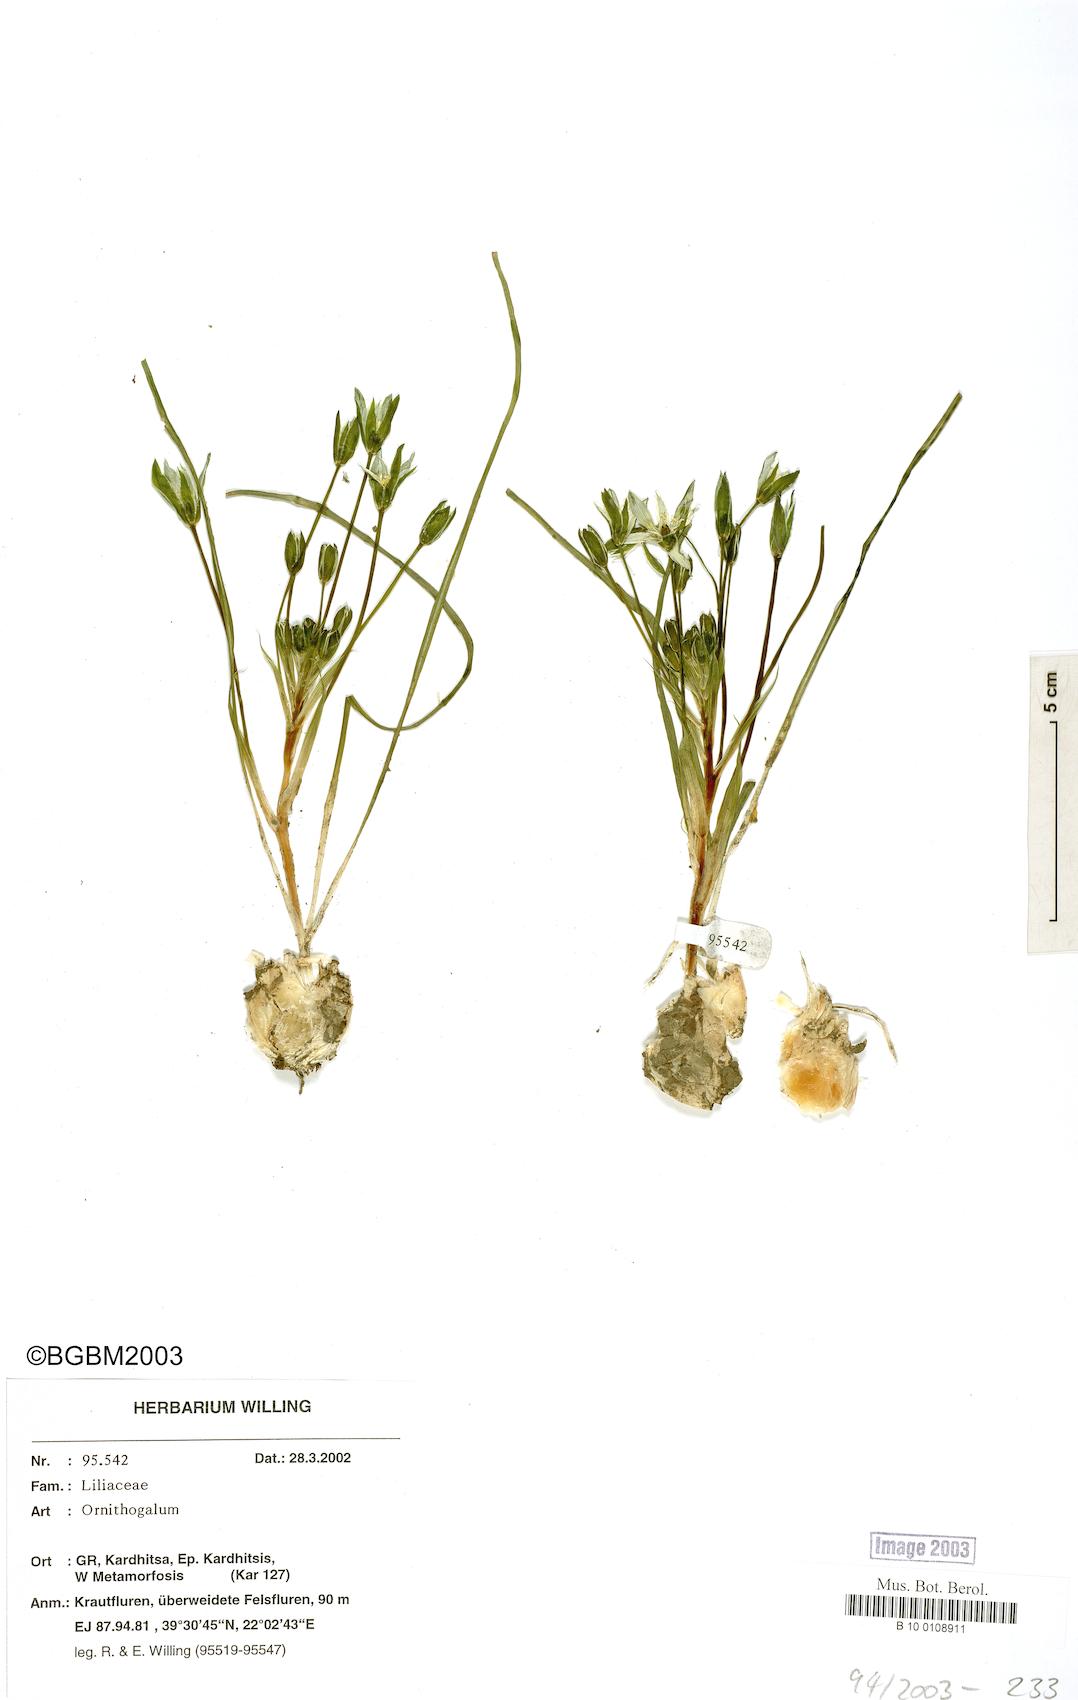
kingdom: Plantae
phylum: Tracheophyta
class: Liliopsida
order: Asparagales
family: Asparagaceae
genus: Ornithogalum
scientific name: Ornithogalum
